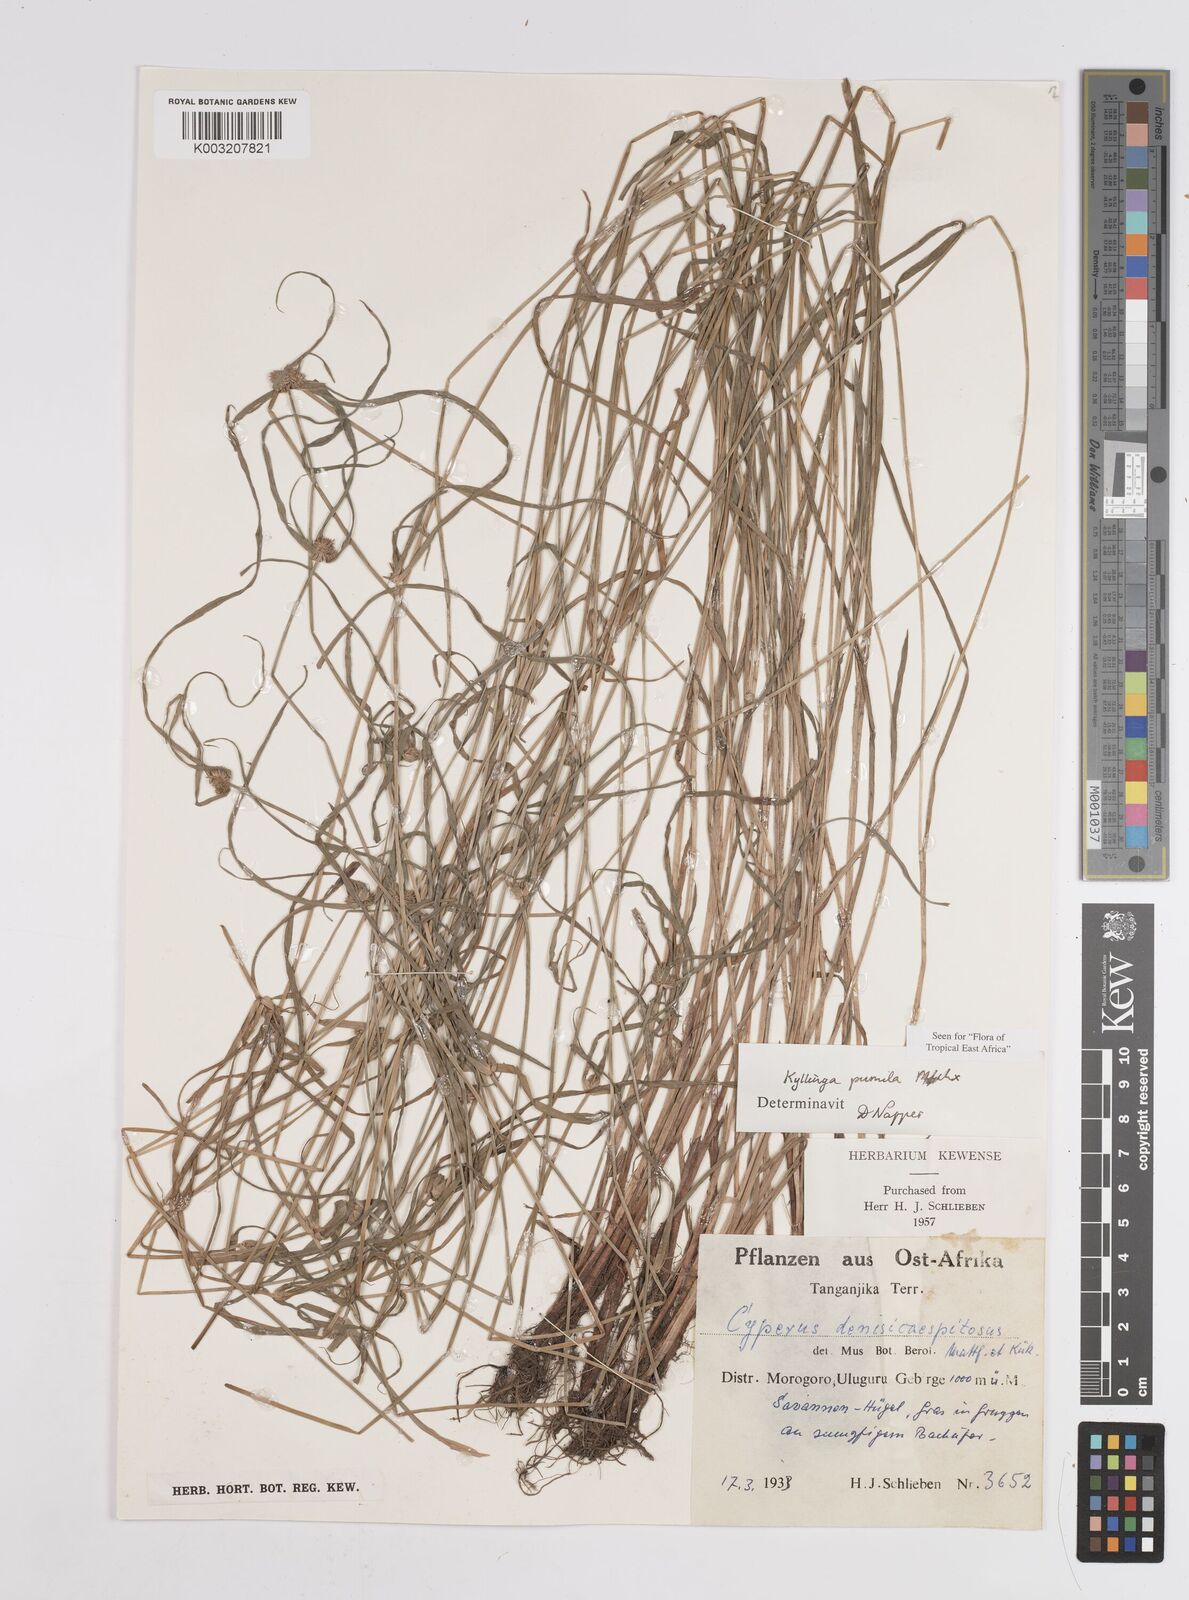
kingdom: Plantae
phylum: Tracheophyta
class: Liliopsida
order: Poales
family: Cyperaceae
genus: Cyperus
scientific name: Cyperus hortensis
